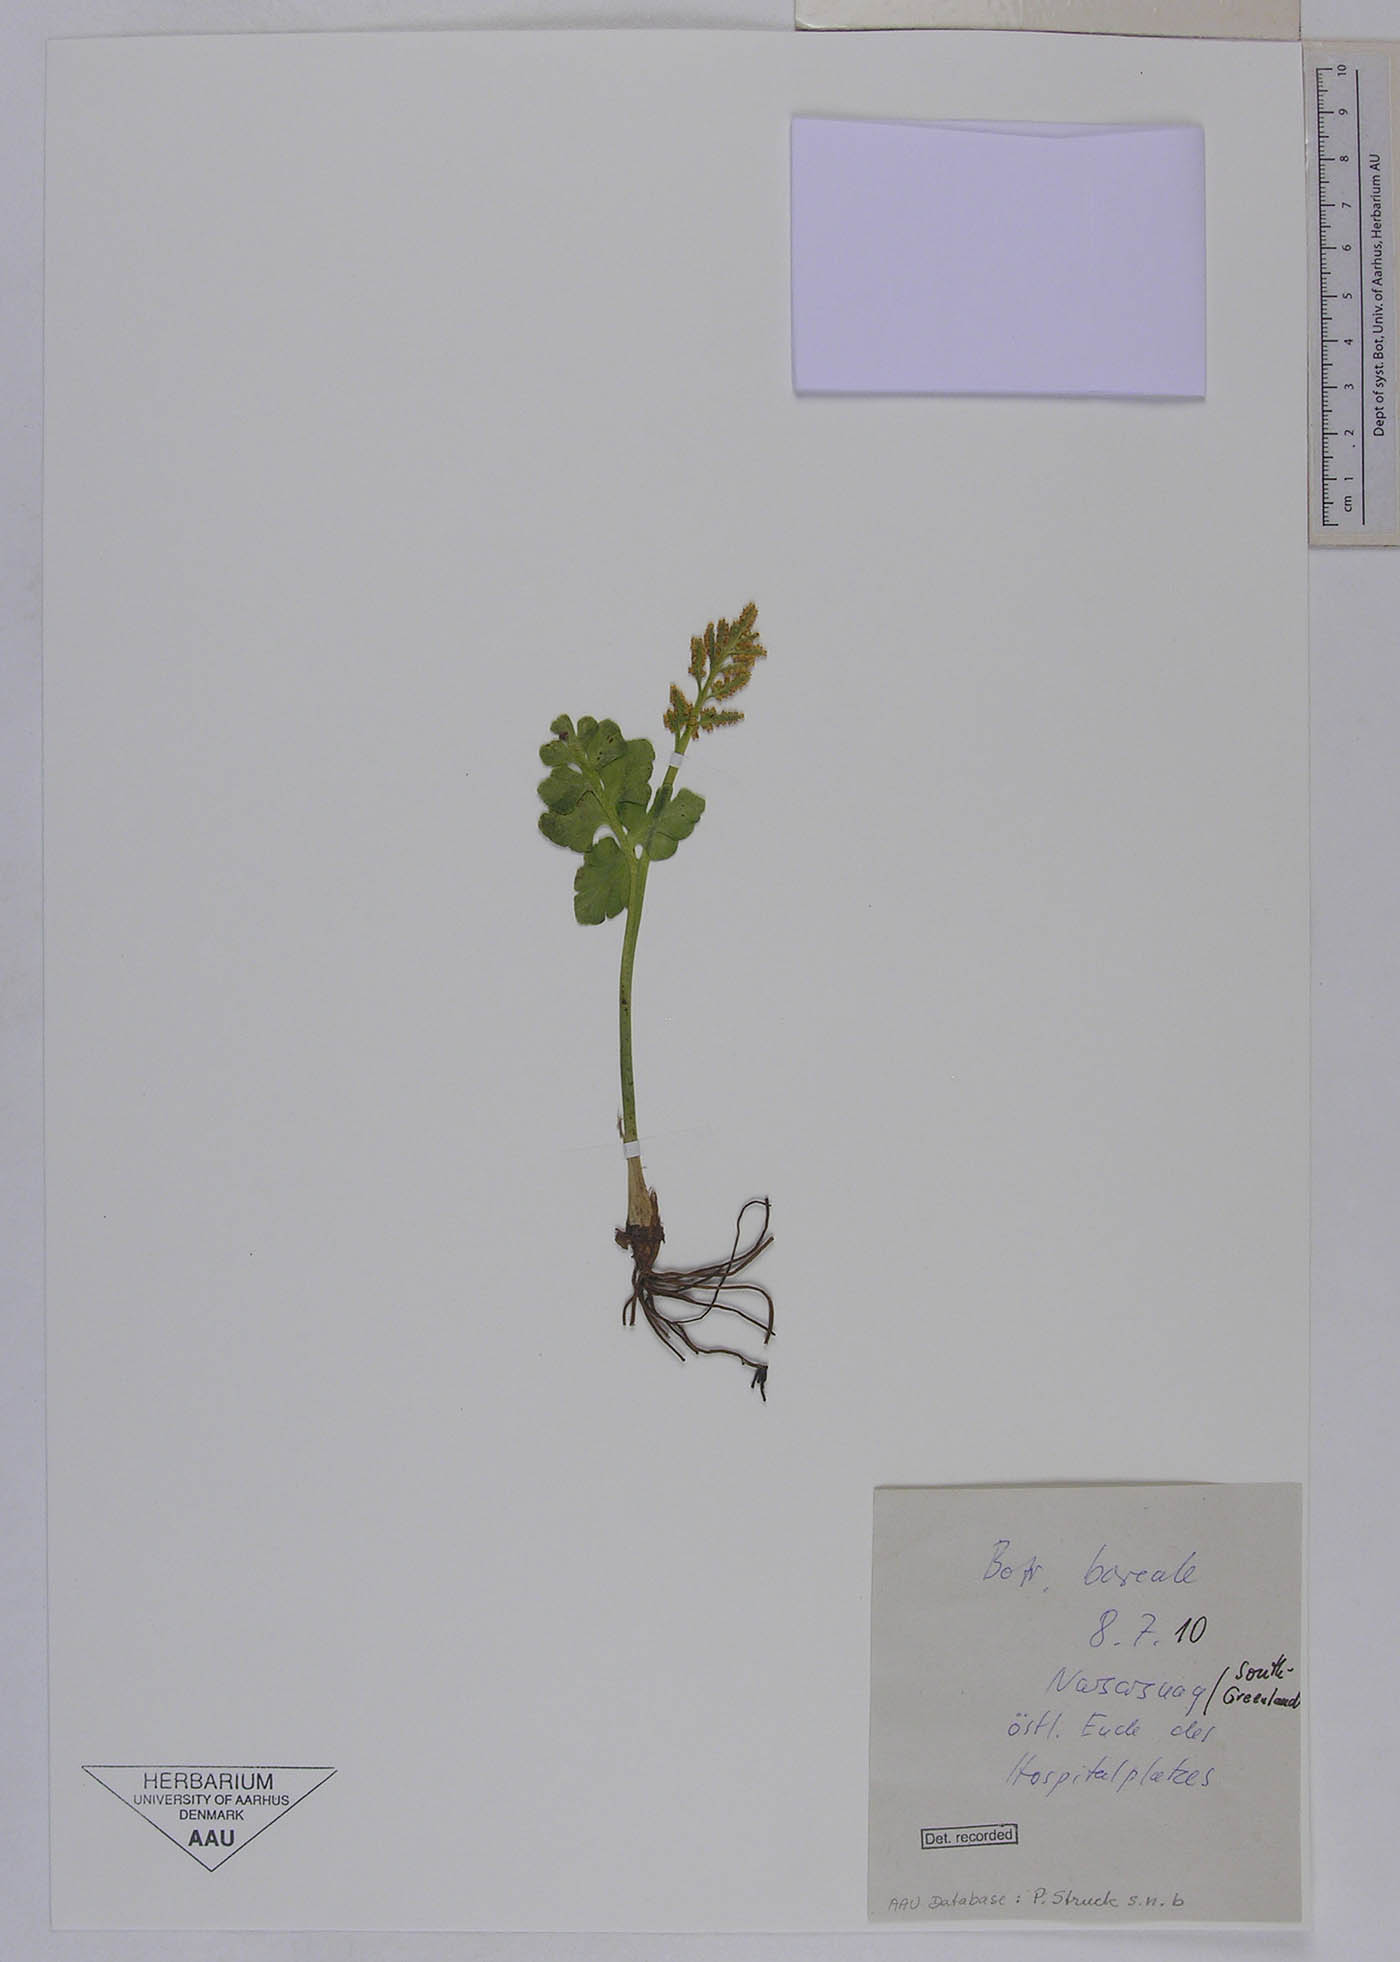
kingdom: Plantae
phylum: Tracheophyta
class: Polypodiopsida
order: Ophioglossales
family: Ophioglossaceae
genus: Botrychium
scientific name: Botrychium boreale
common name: Boreal moonwort
